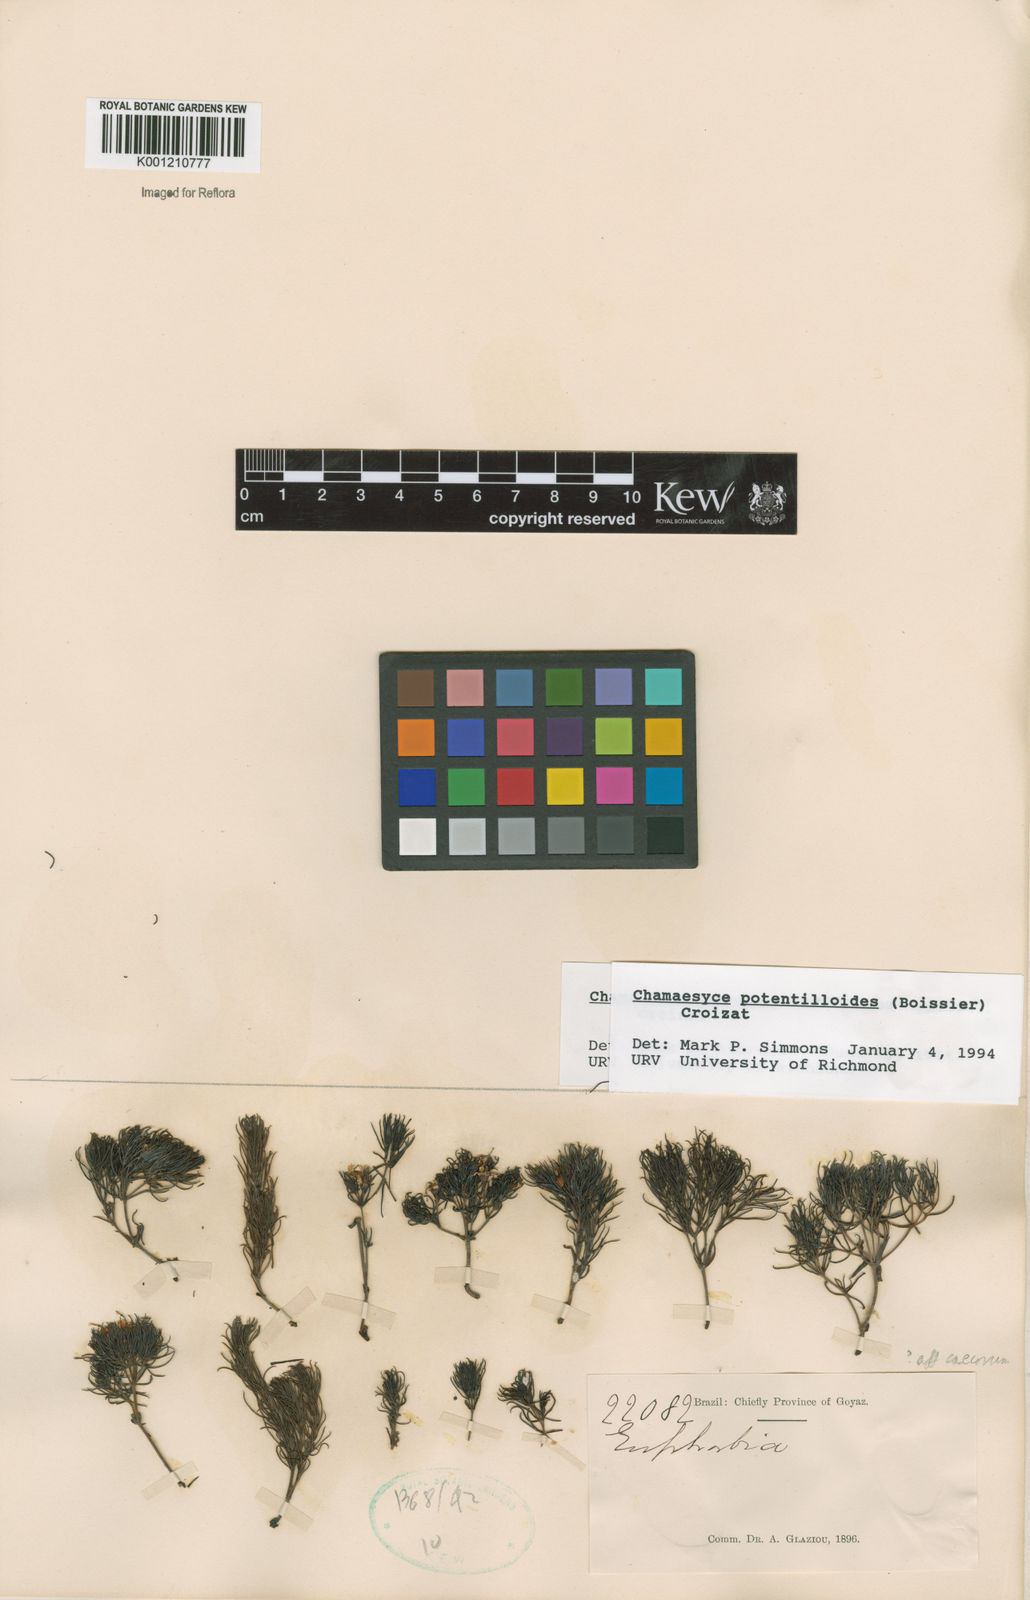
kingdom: Plantae
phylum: Tracheophyta
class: Magnoliopsida
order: Malpighiales
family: Euphorbiaceae
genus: Euphorbia
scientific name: Euphorbia potentilloides
